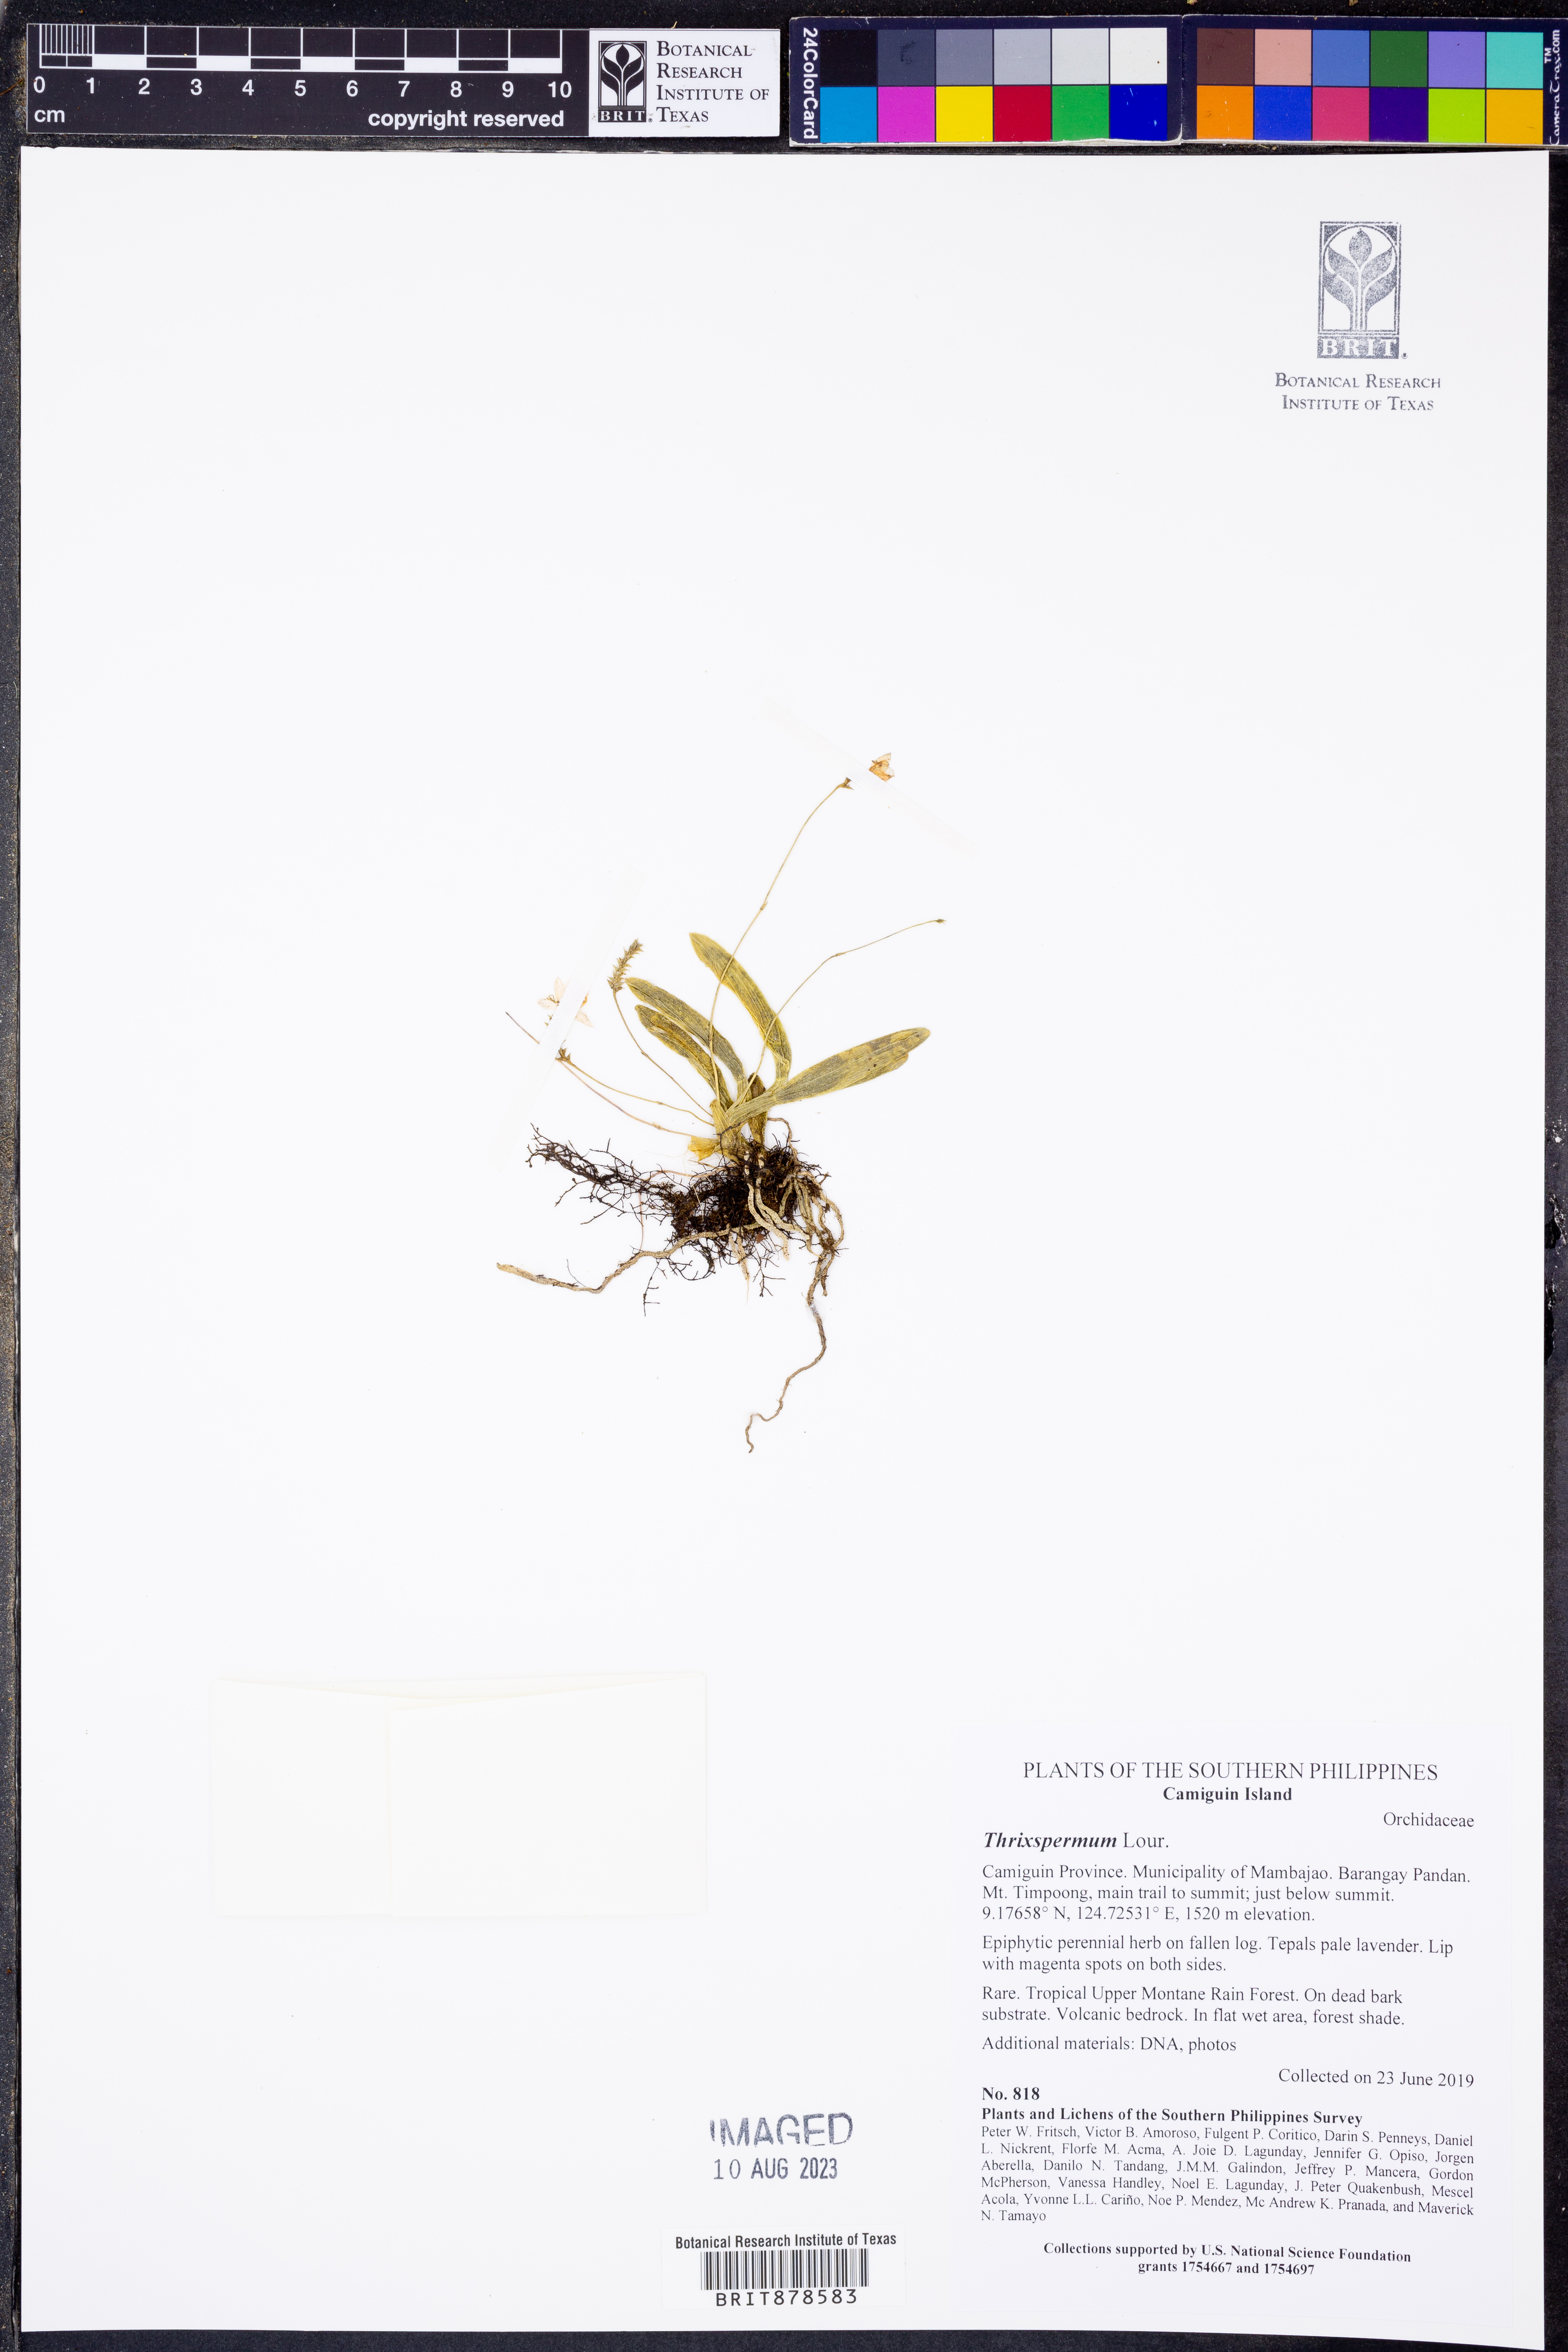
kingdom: Plantae
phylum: Tracheophyta
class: Liliopsida
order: Asparagales
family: Orchidaceae
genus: Thrixspermum
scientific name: Thrixspermum
